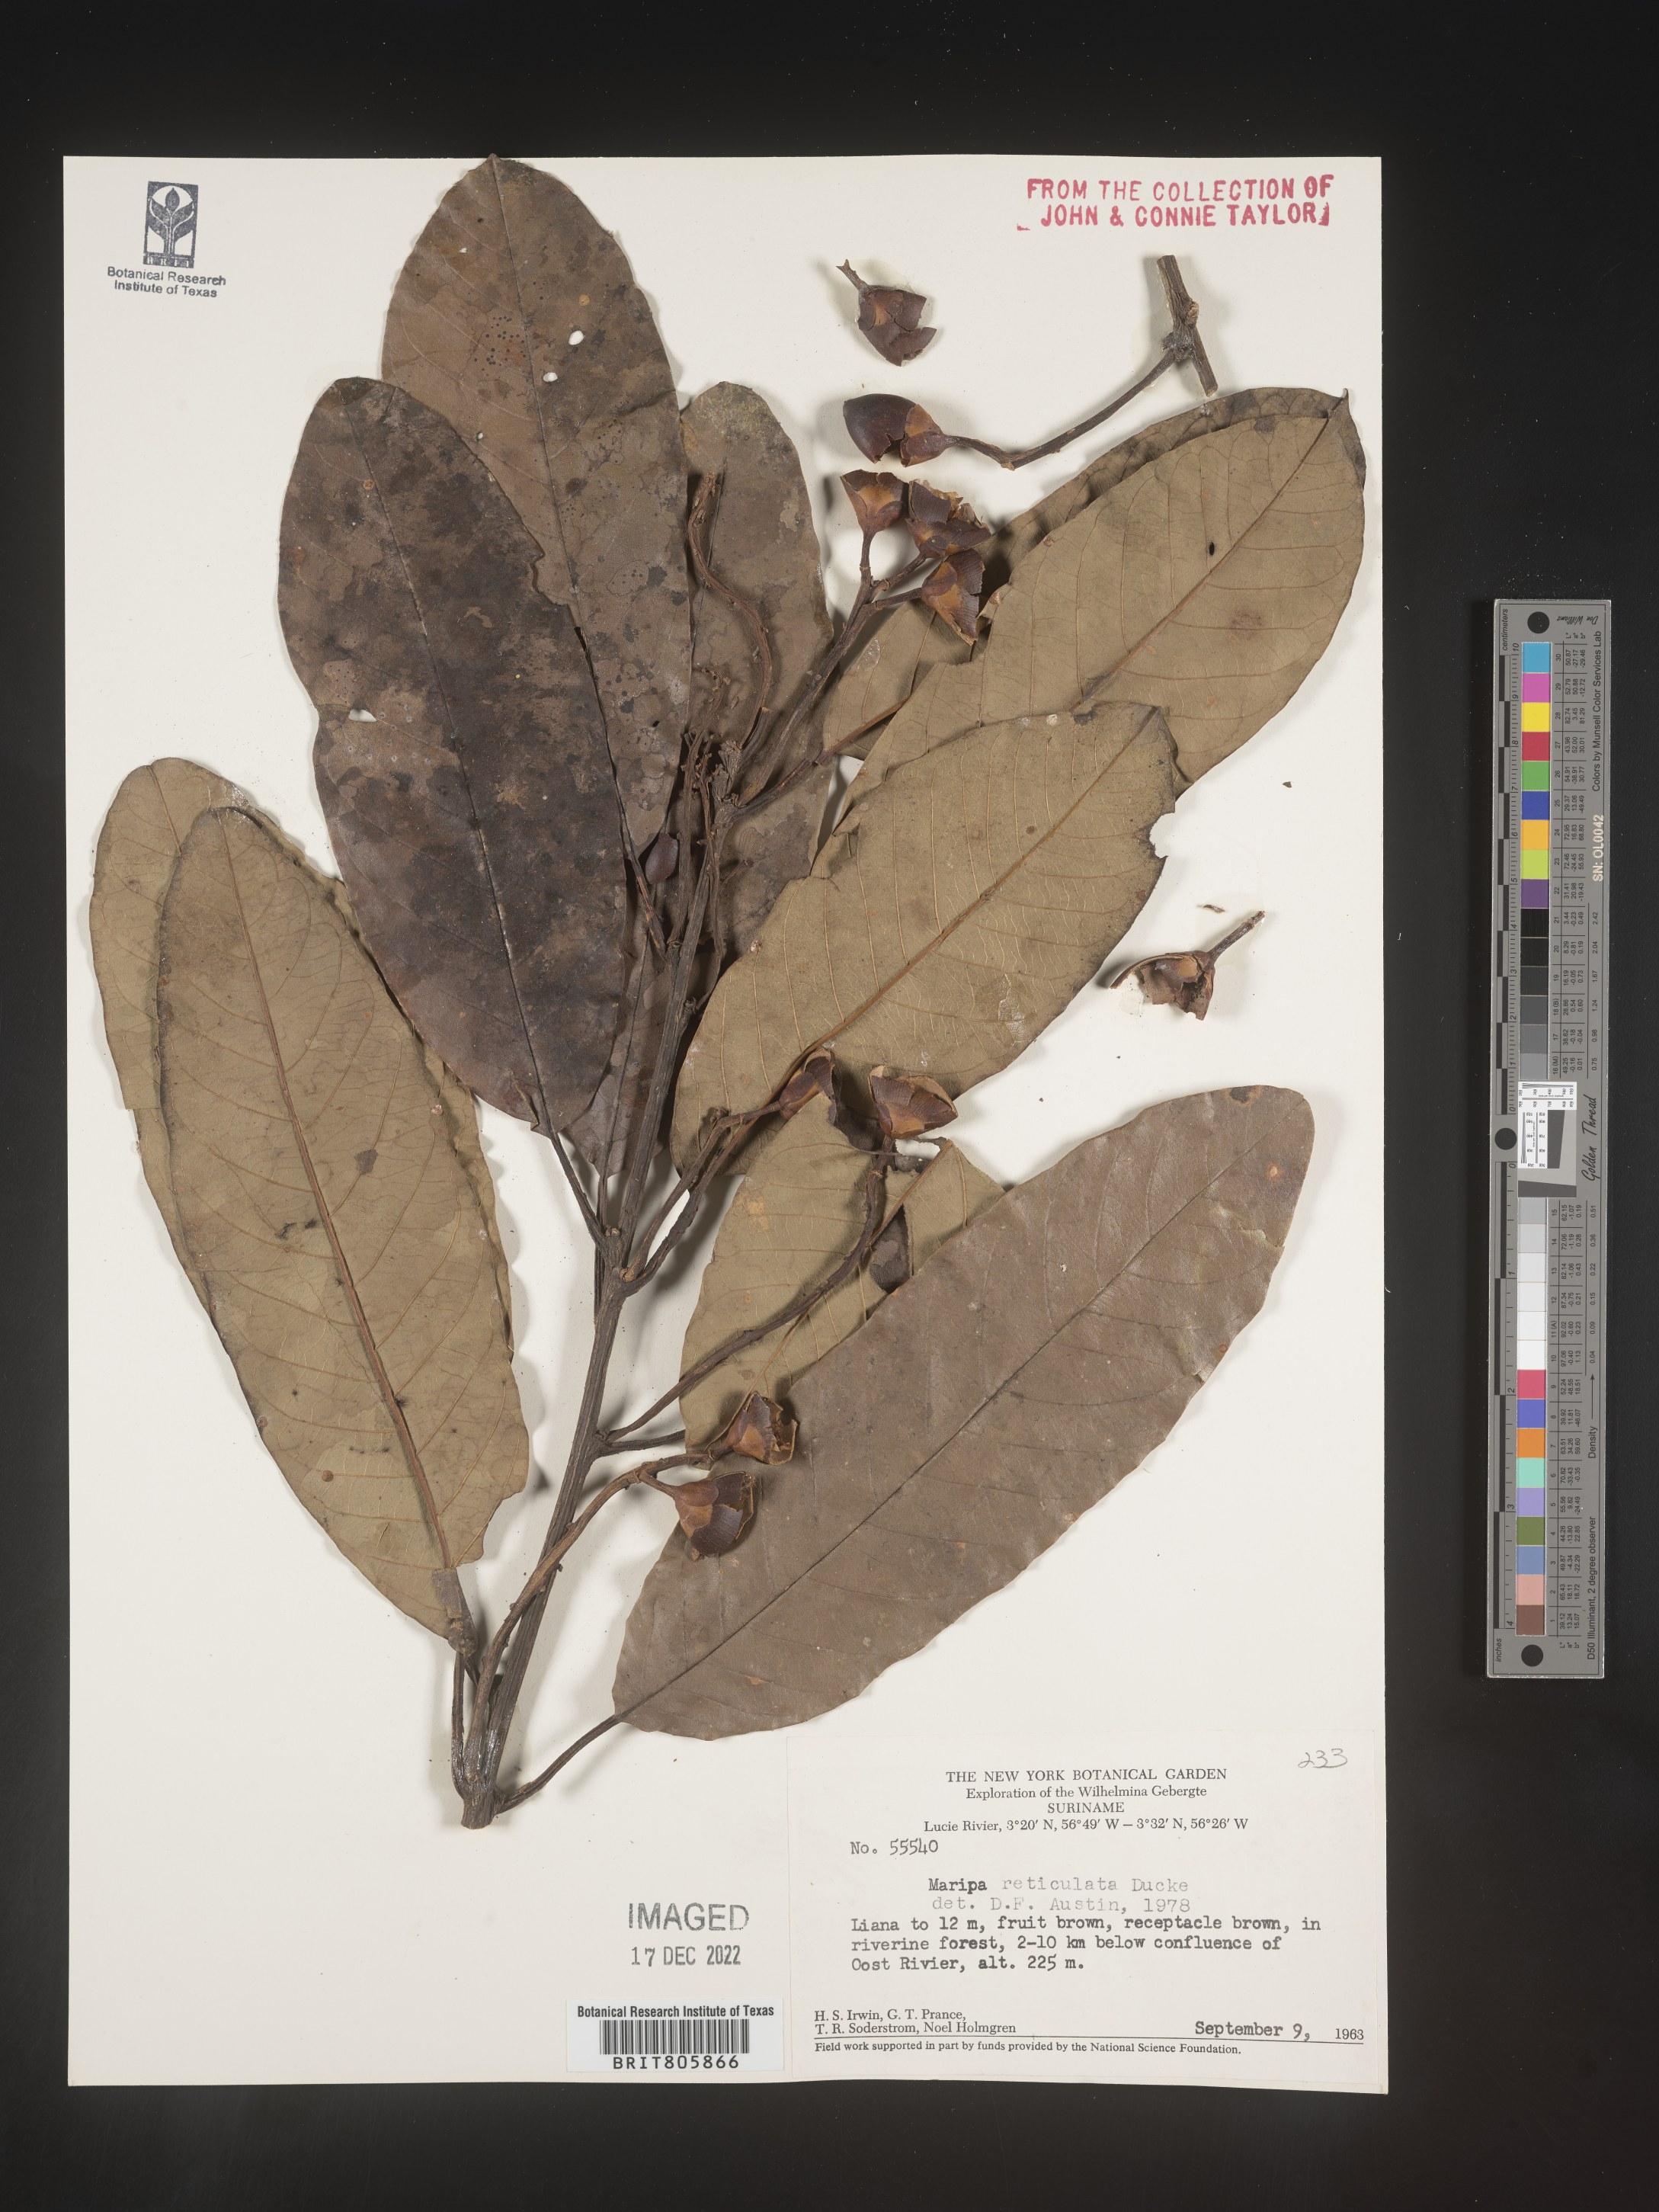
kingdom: Plantae
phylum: Tracheophyta
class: Magnoliopsida
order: Solanales
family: Convolvulaceae
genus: Maripa
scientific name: Maripa
